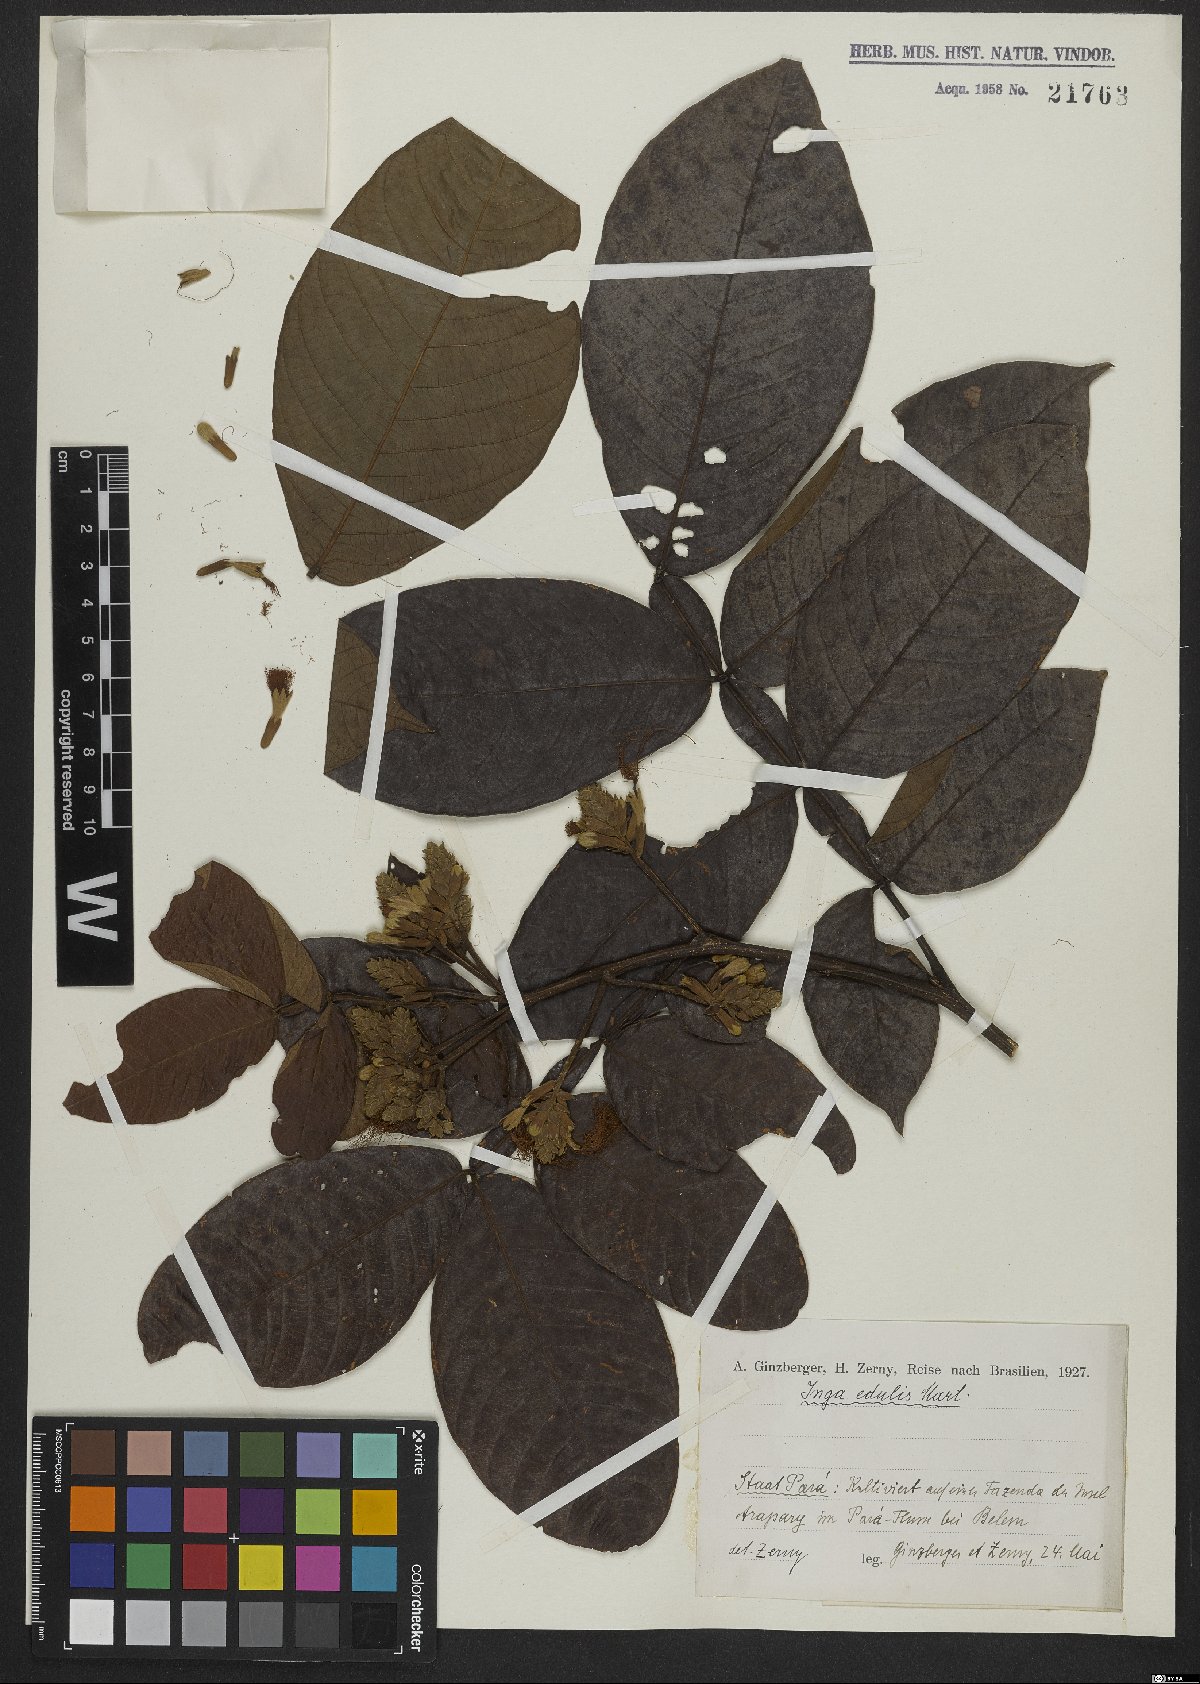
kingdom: Plantae
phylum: Tracheophyta
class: Magnoliopsida
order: Fabales
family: Fabaceae
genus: Inga
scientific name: Inga edulis
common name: Ice cream bean
